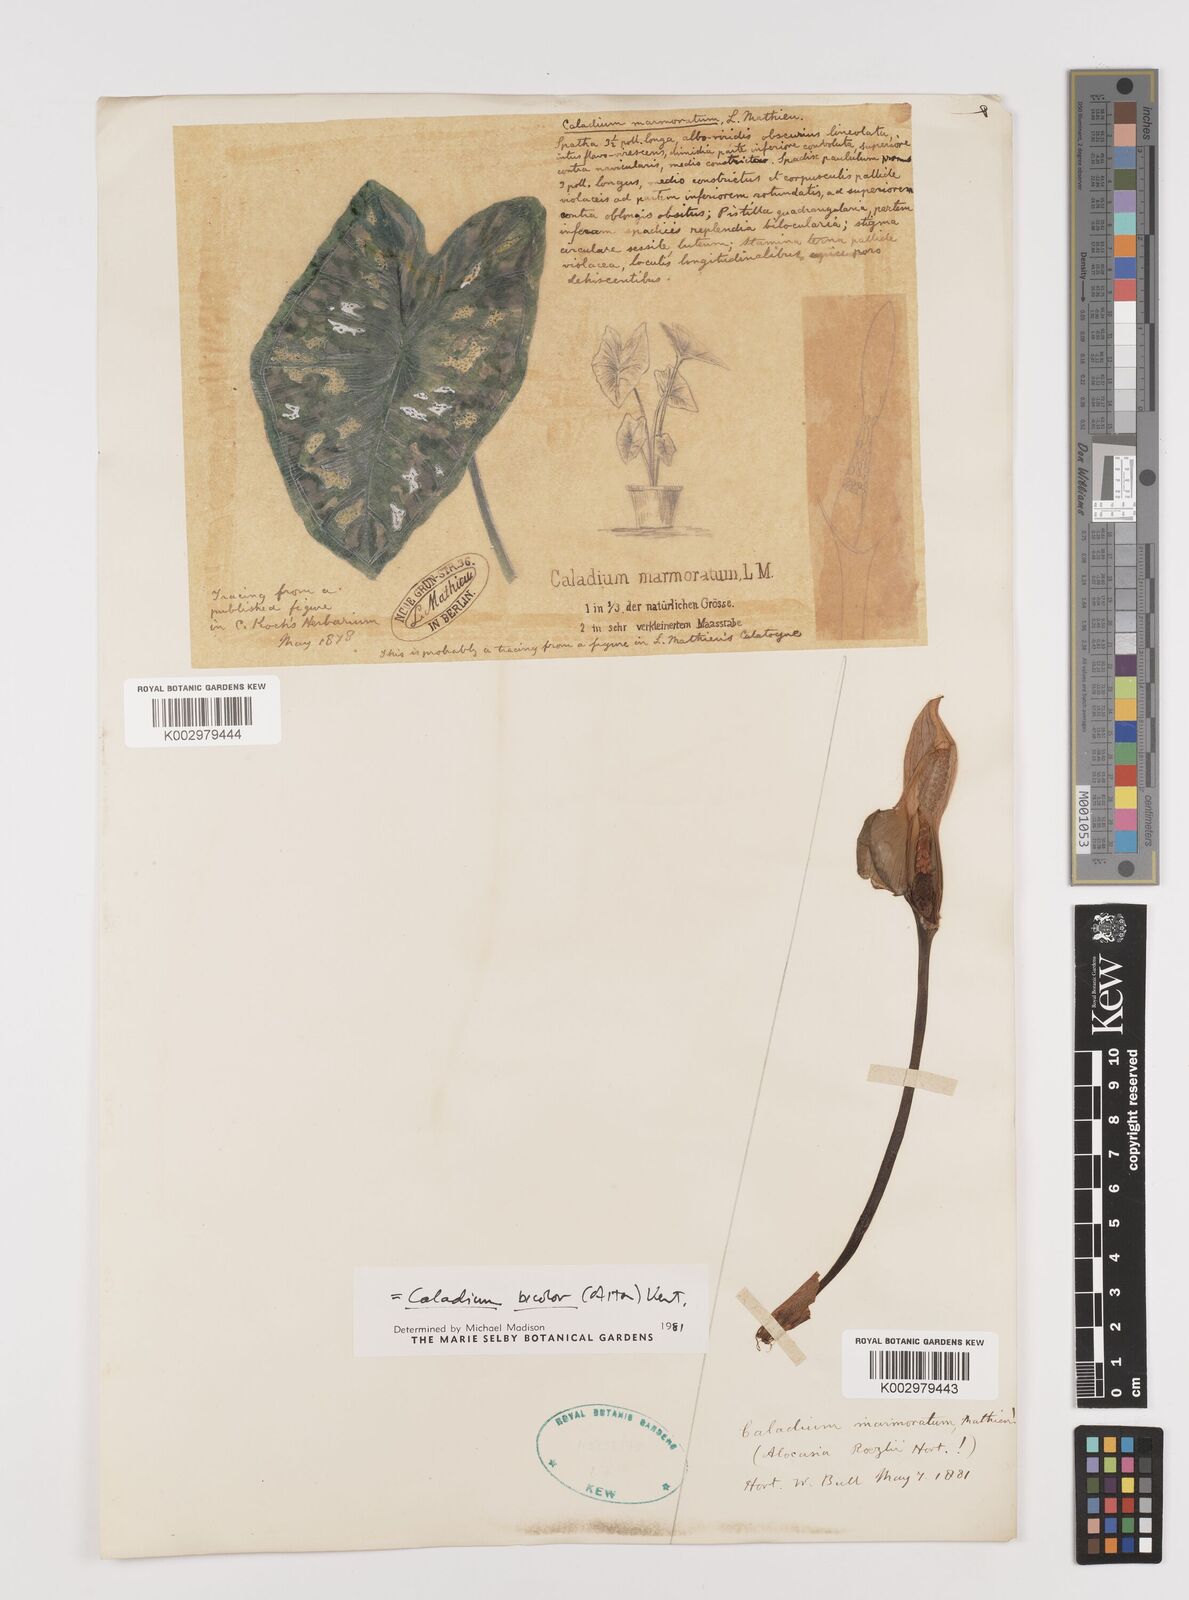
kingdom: Plantae
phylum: Tracheophyta
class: Liliopsida
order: Alismatales
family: Araceae
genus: Caladium
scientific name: Caladium bicolor
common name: Artist's pallet
